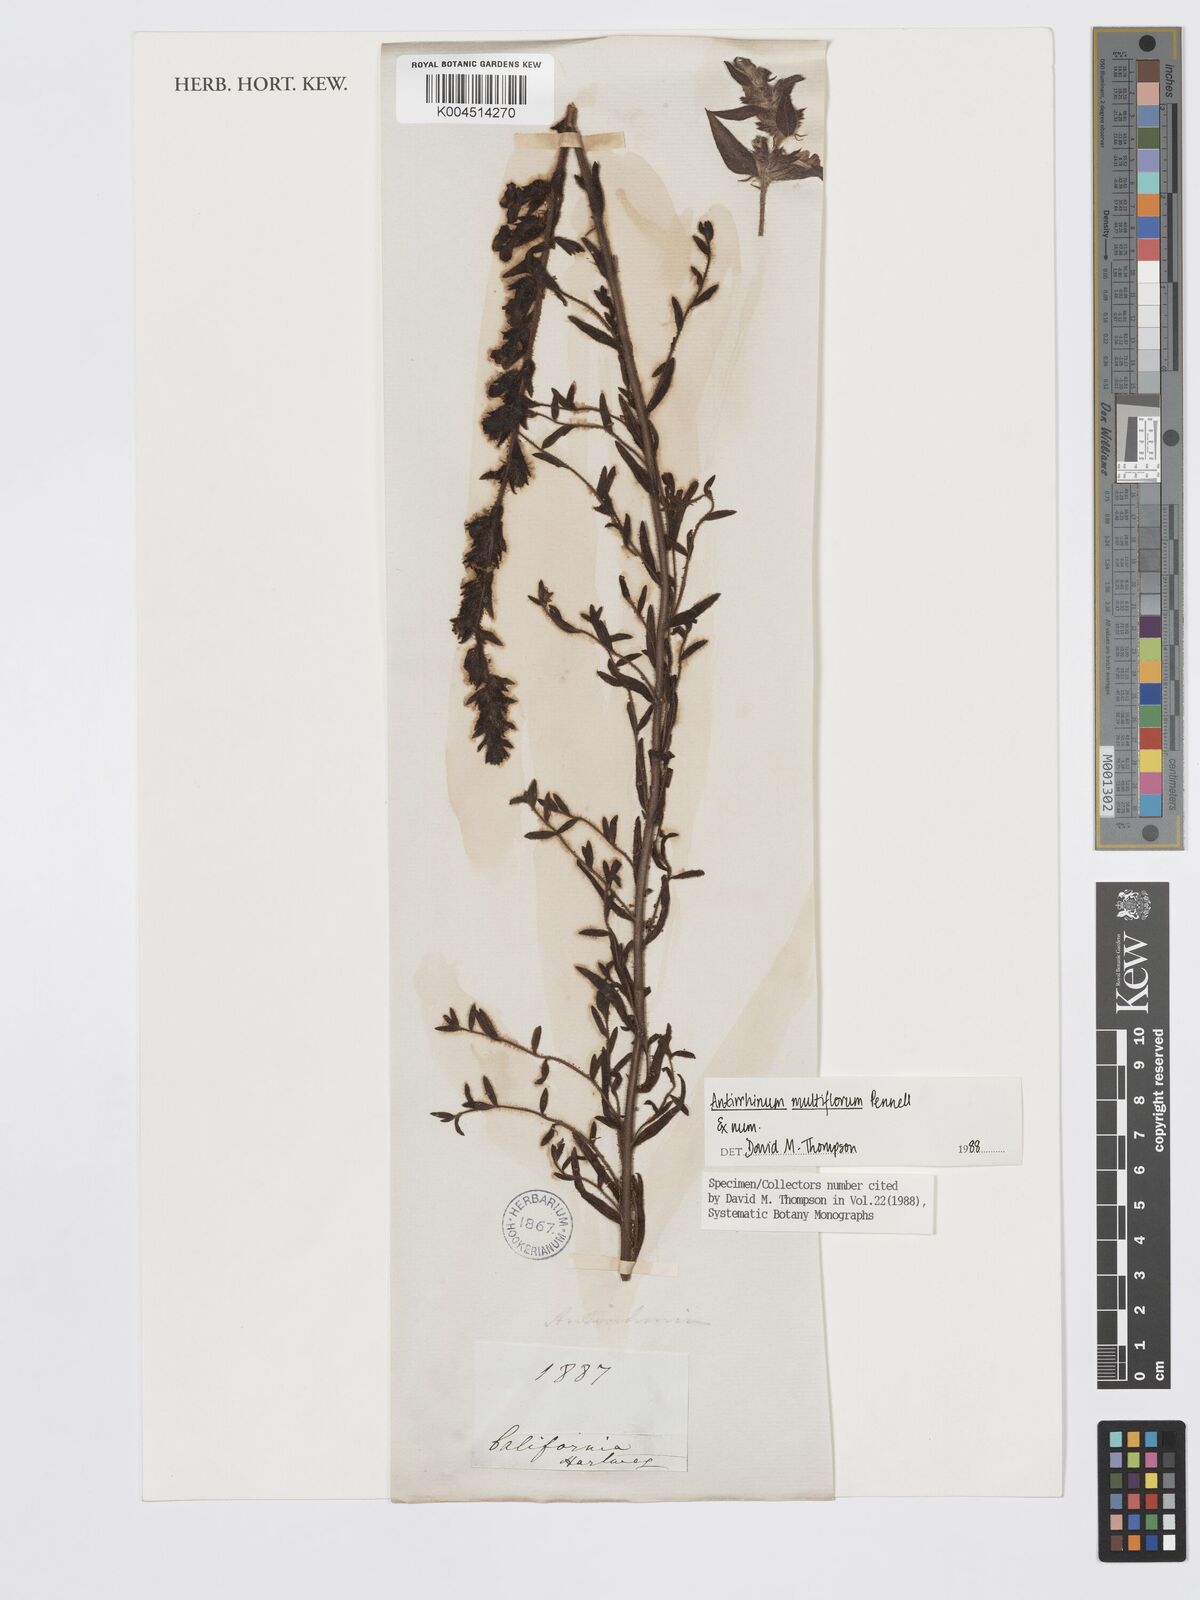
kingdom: Plantae
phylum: Tracheophyta
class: Magnoliopsida
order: Lamiales
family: Plantaginaceae
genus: Sairocarpus
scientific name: Sairocarpus multiflorus
